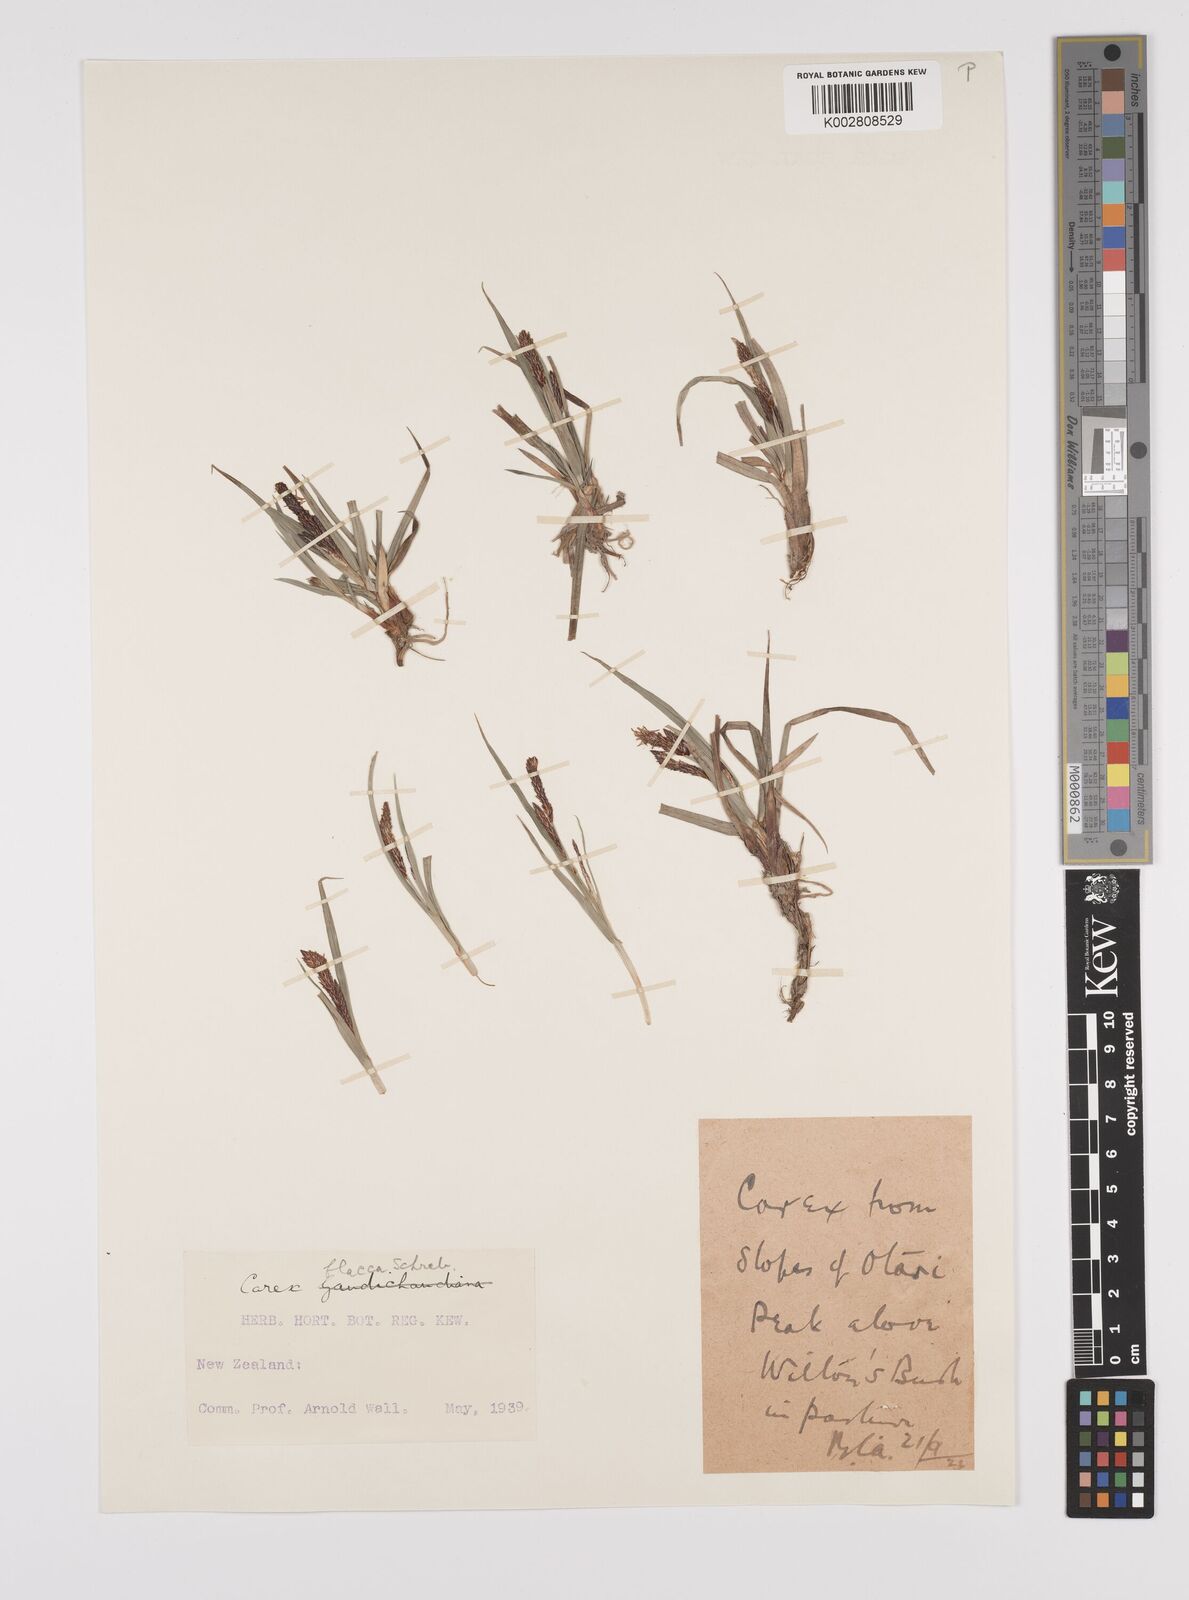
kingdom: Plantae
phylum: Tracheophyta
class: Liliopsida
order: Poales
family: Cyperaceae
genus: Carex
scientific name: Carex flacca
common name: Glaucous sedge
